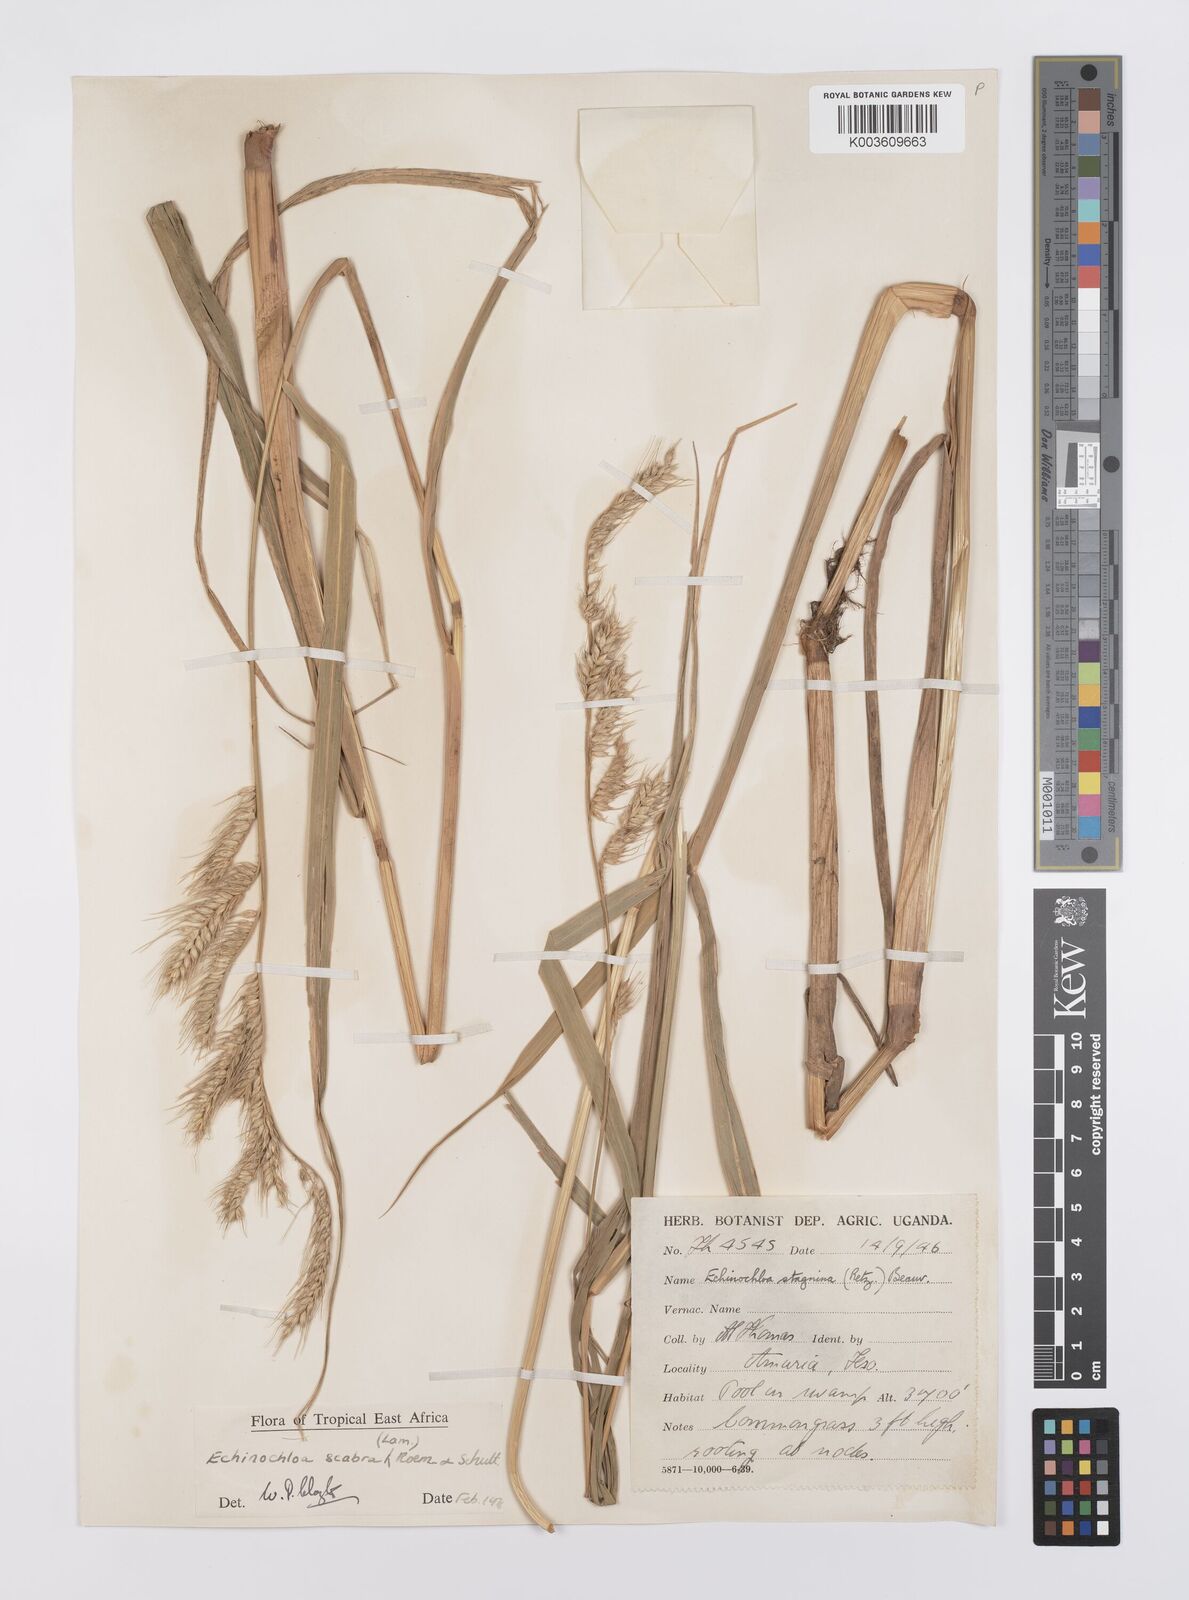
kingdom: Plantae
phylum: Tracheophyta
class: Liliopsida
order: Poales
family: Poaceae
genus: Echinochloa
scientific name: Echinochloa stagnina
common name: Burgu grass
